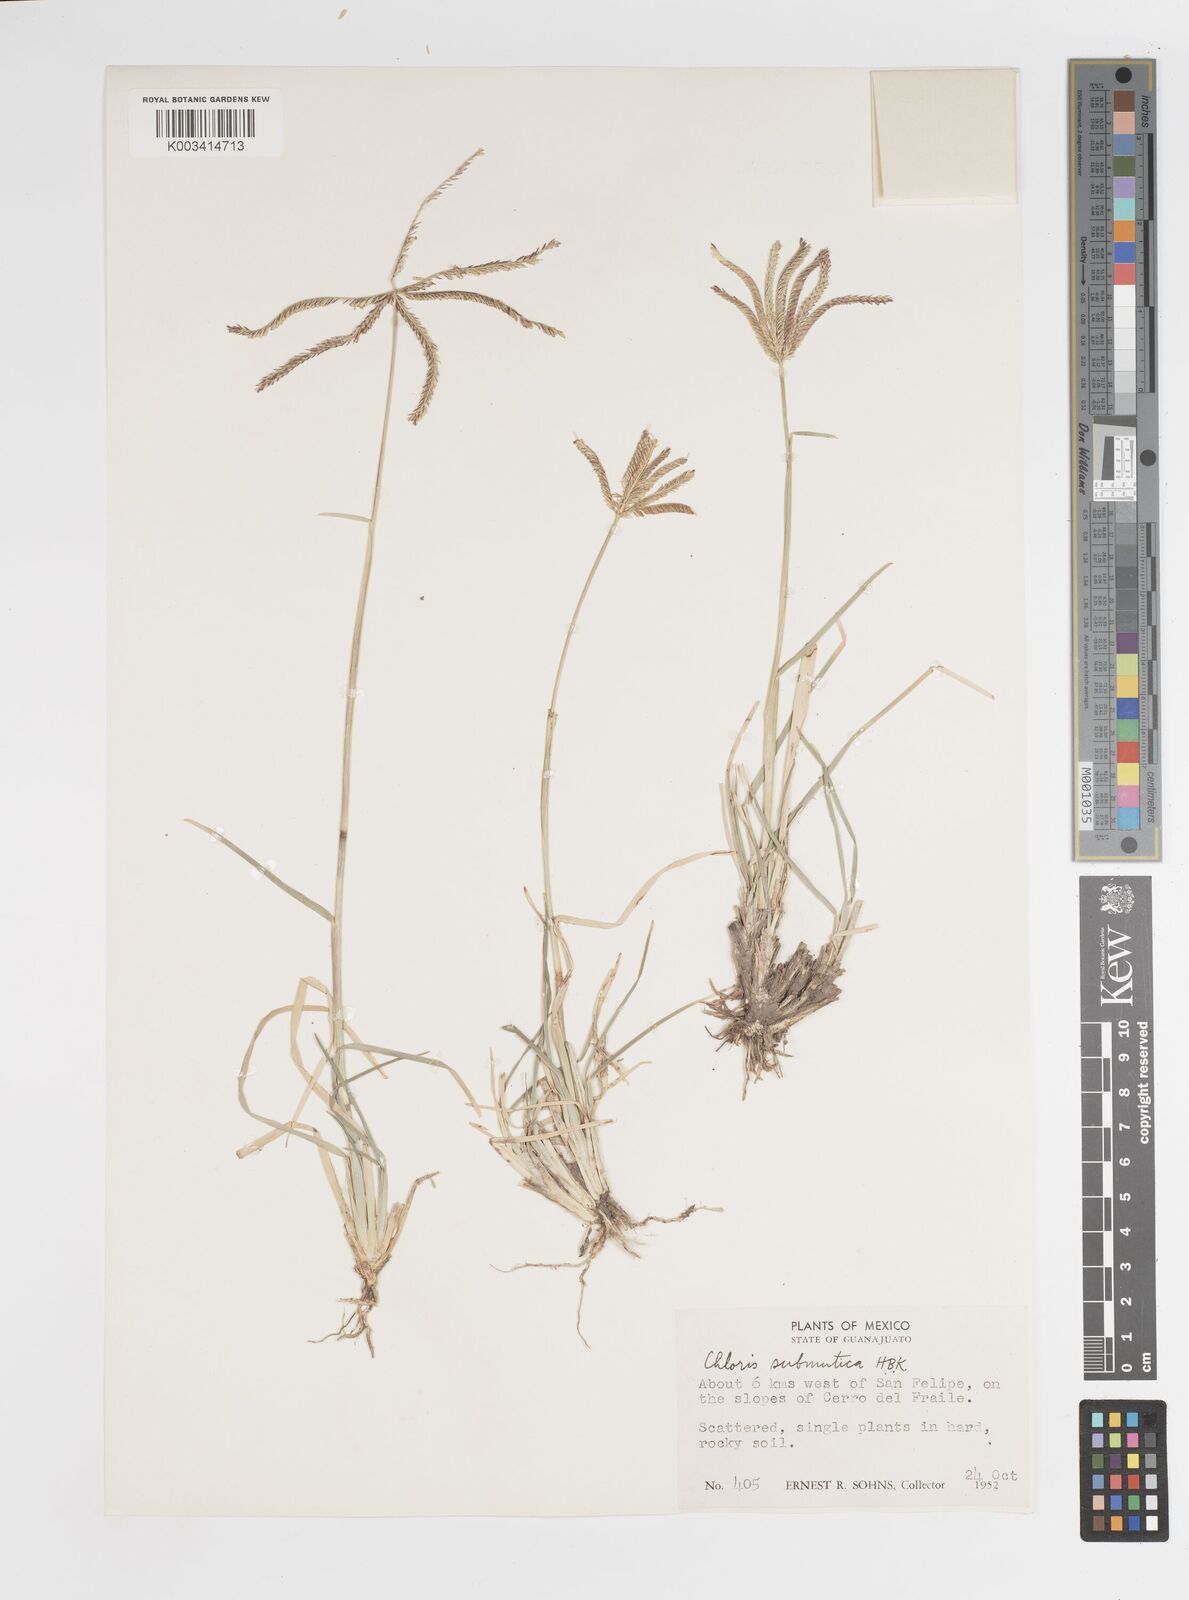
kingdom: Plantae
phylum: Tracheophyta
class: Liliopsida
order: Poales
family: Poaceae
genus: Chloris
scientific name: Chloris submutica
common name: Mexican windmill grass
